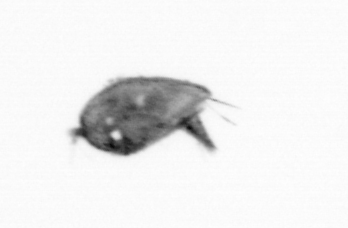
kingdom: Animalia
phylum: Arthropoda
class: Maxillopoda
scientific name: Maxillopoda
